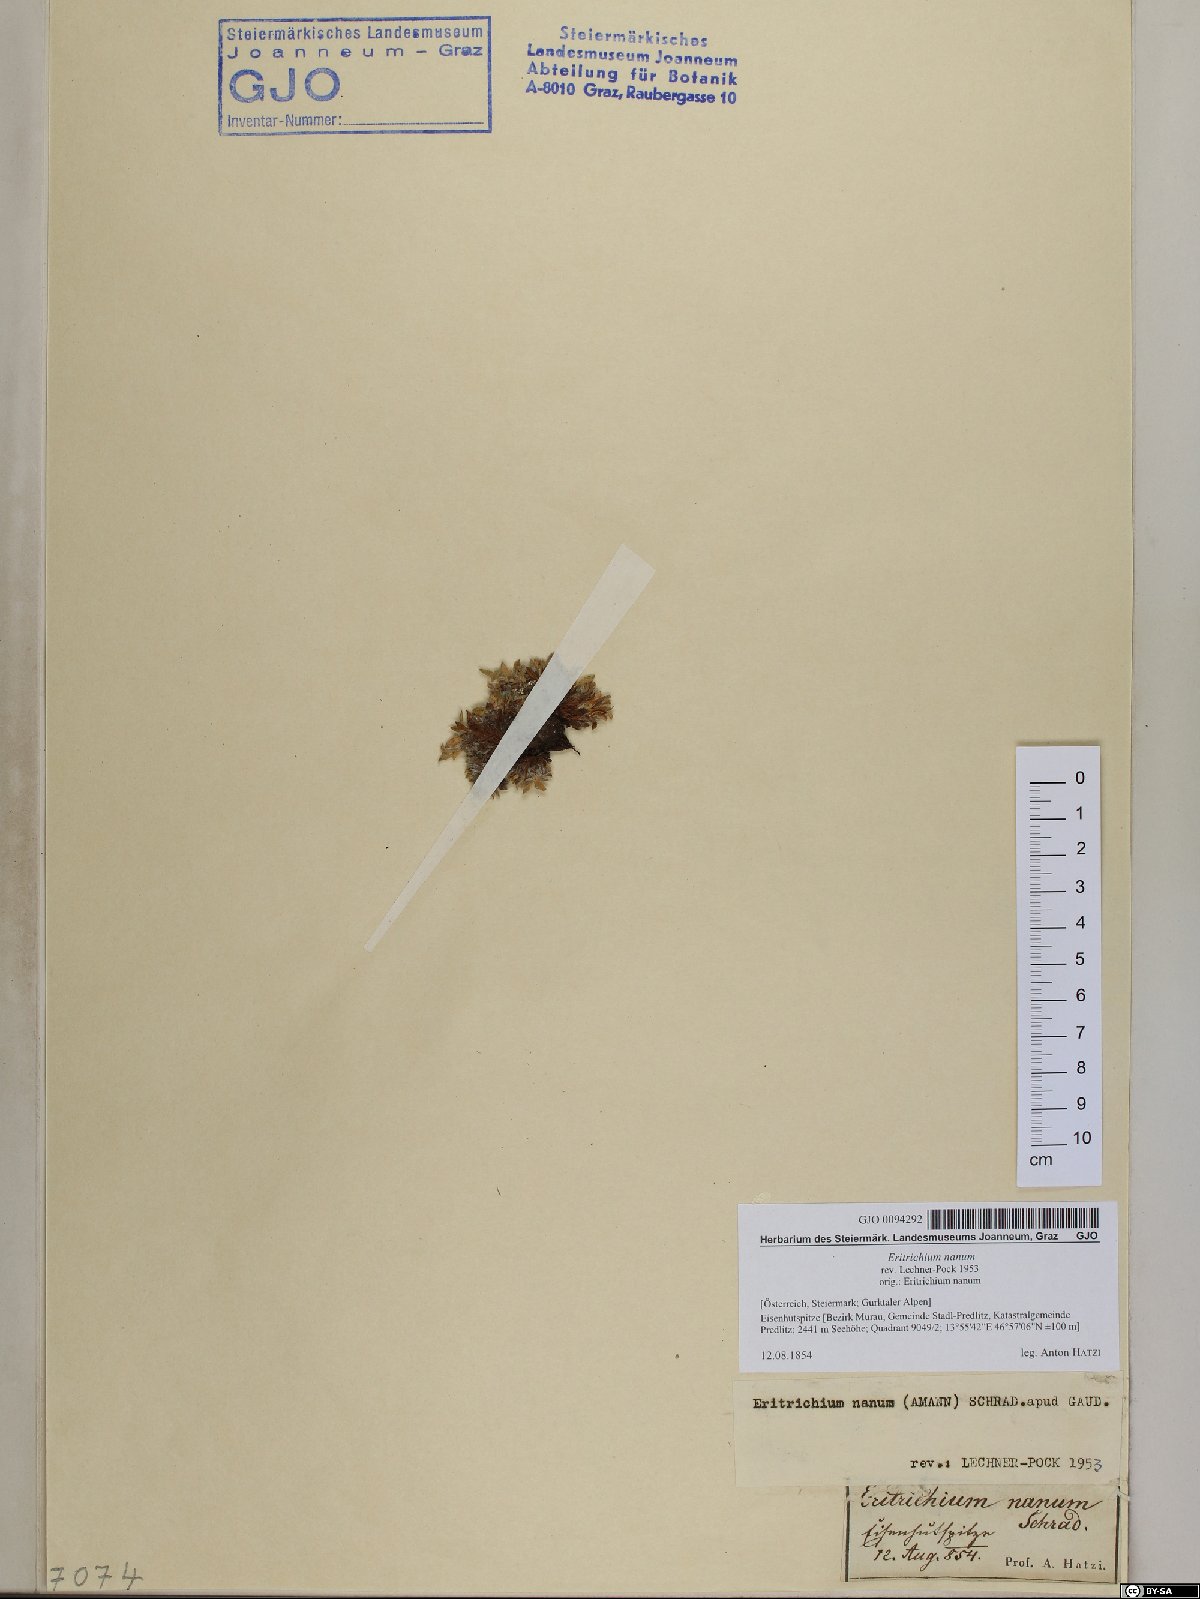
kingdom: Plantae
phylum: Tracheophyta
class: Magnoliopsida
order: Boraginales
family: Boraginaceae
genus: Eritrichium
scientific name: Eritrichium nanum
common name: King-of-the-alps
